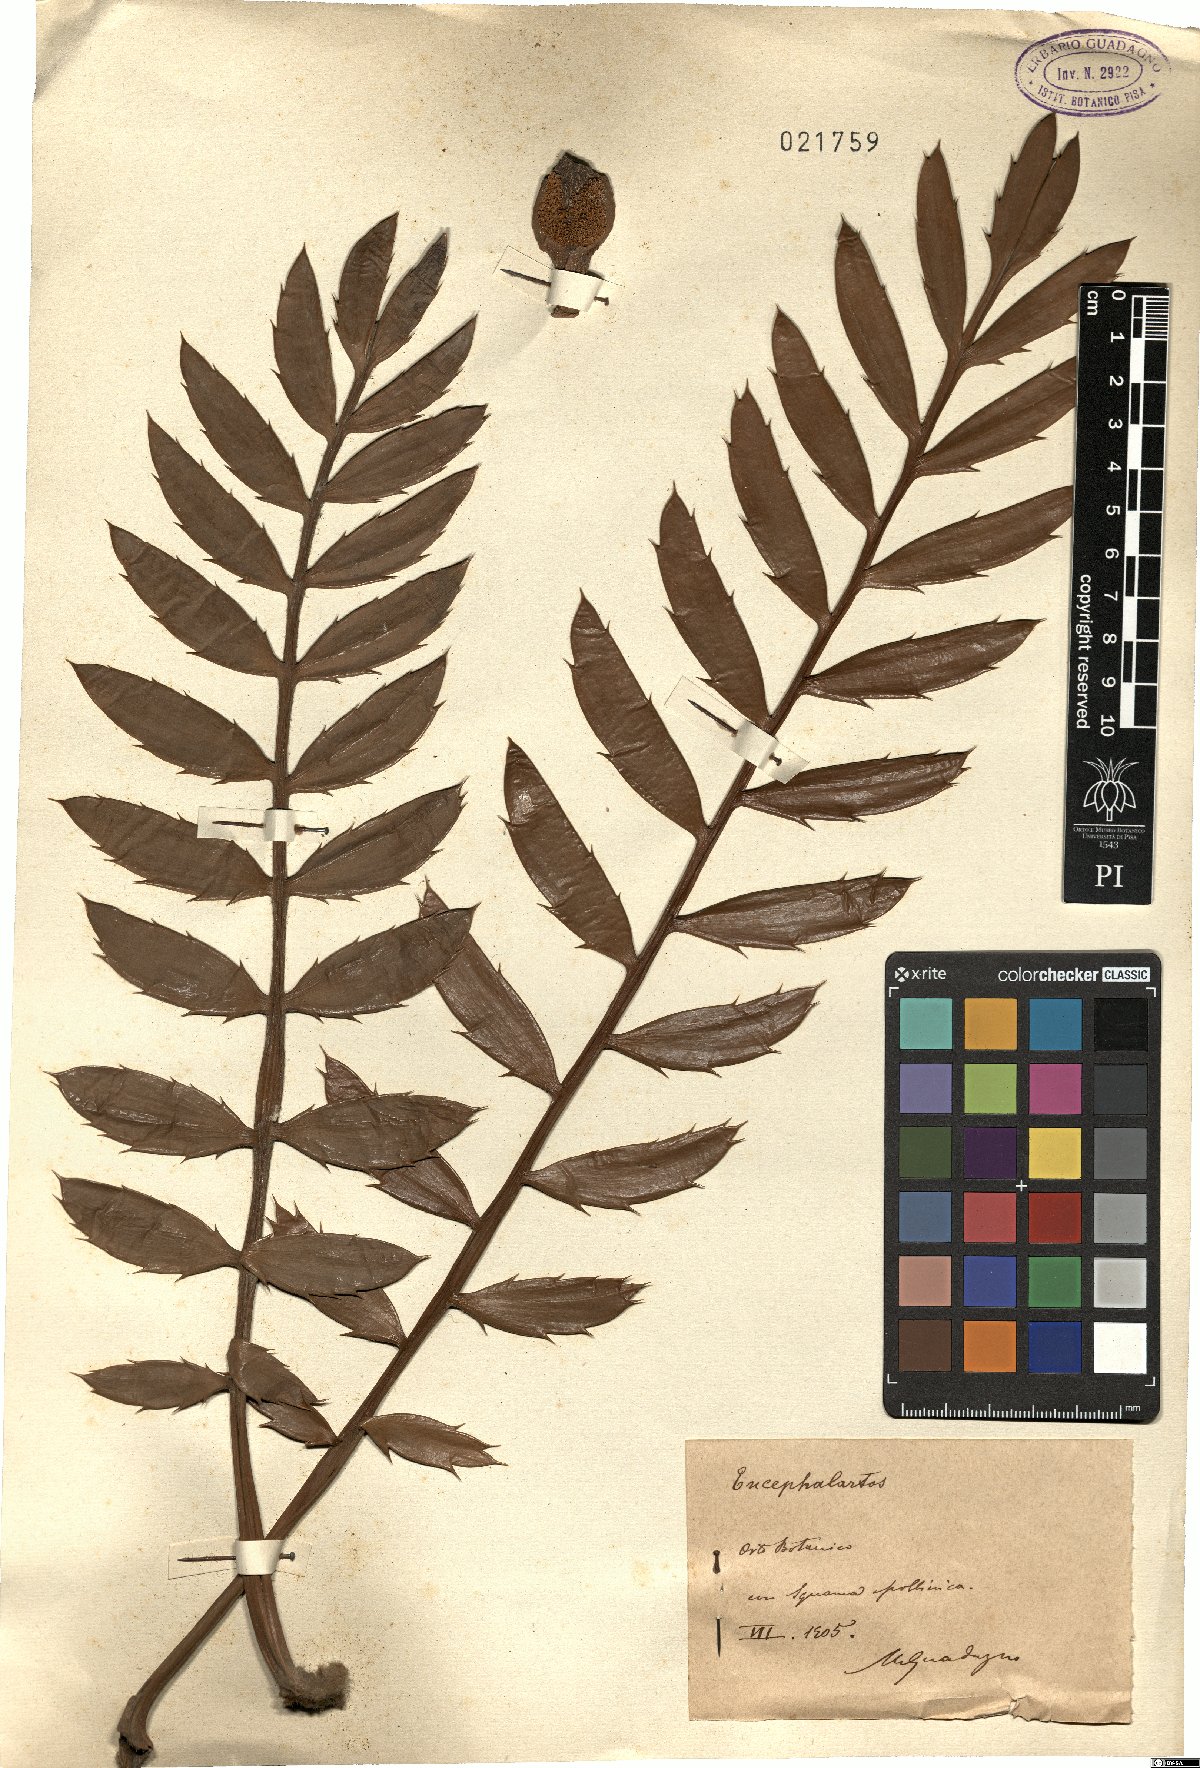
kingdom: Plantae
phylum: Tracheophyta
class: Cycadopsida
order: Cycadales
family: Zamiaceae
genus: Encephalartos
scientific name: Encephalartos
